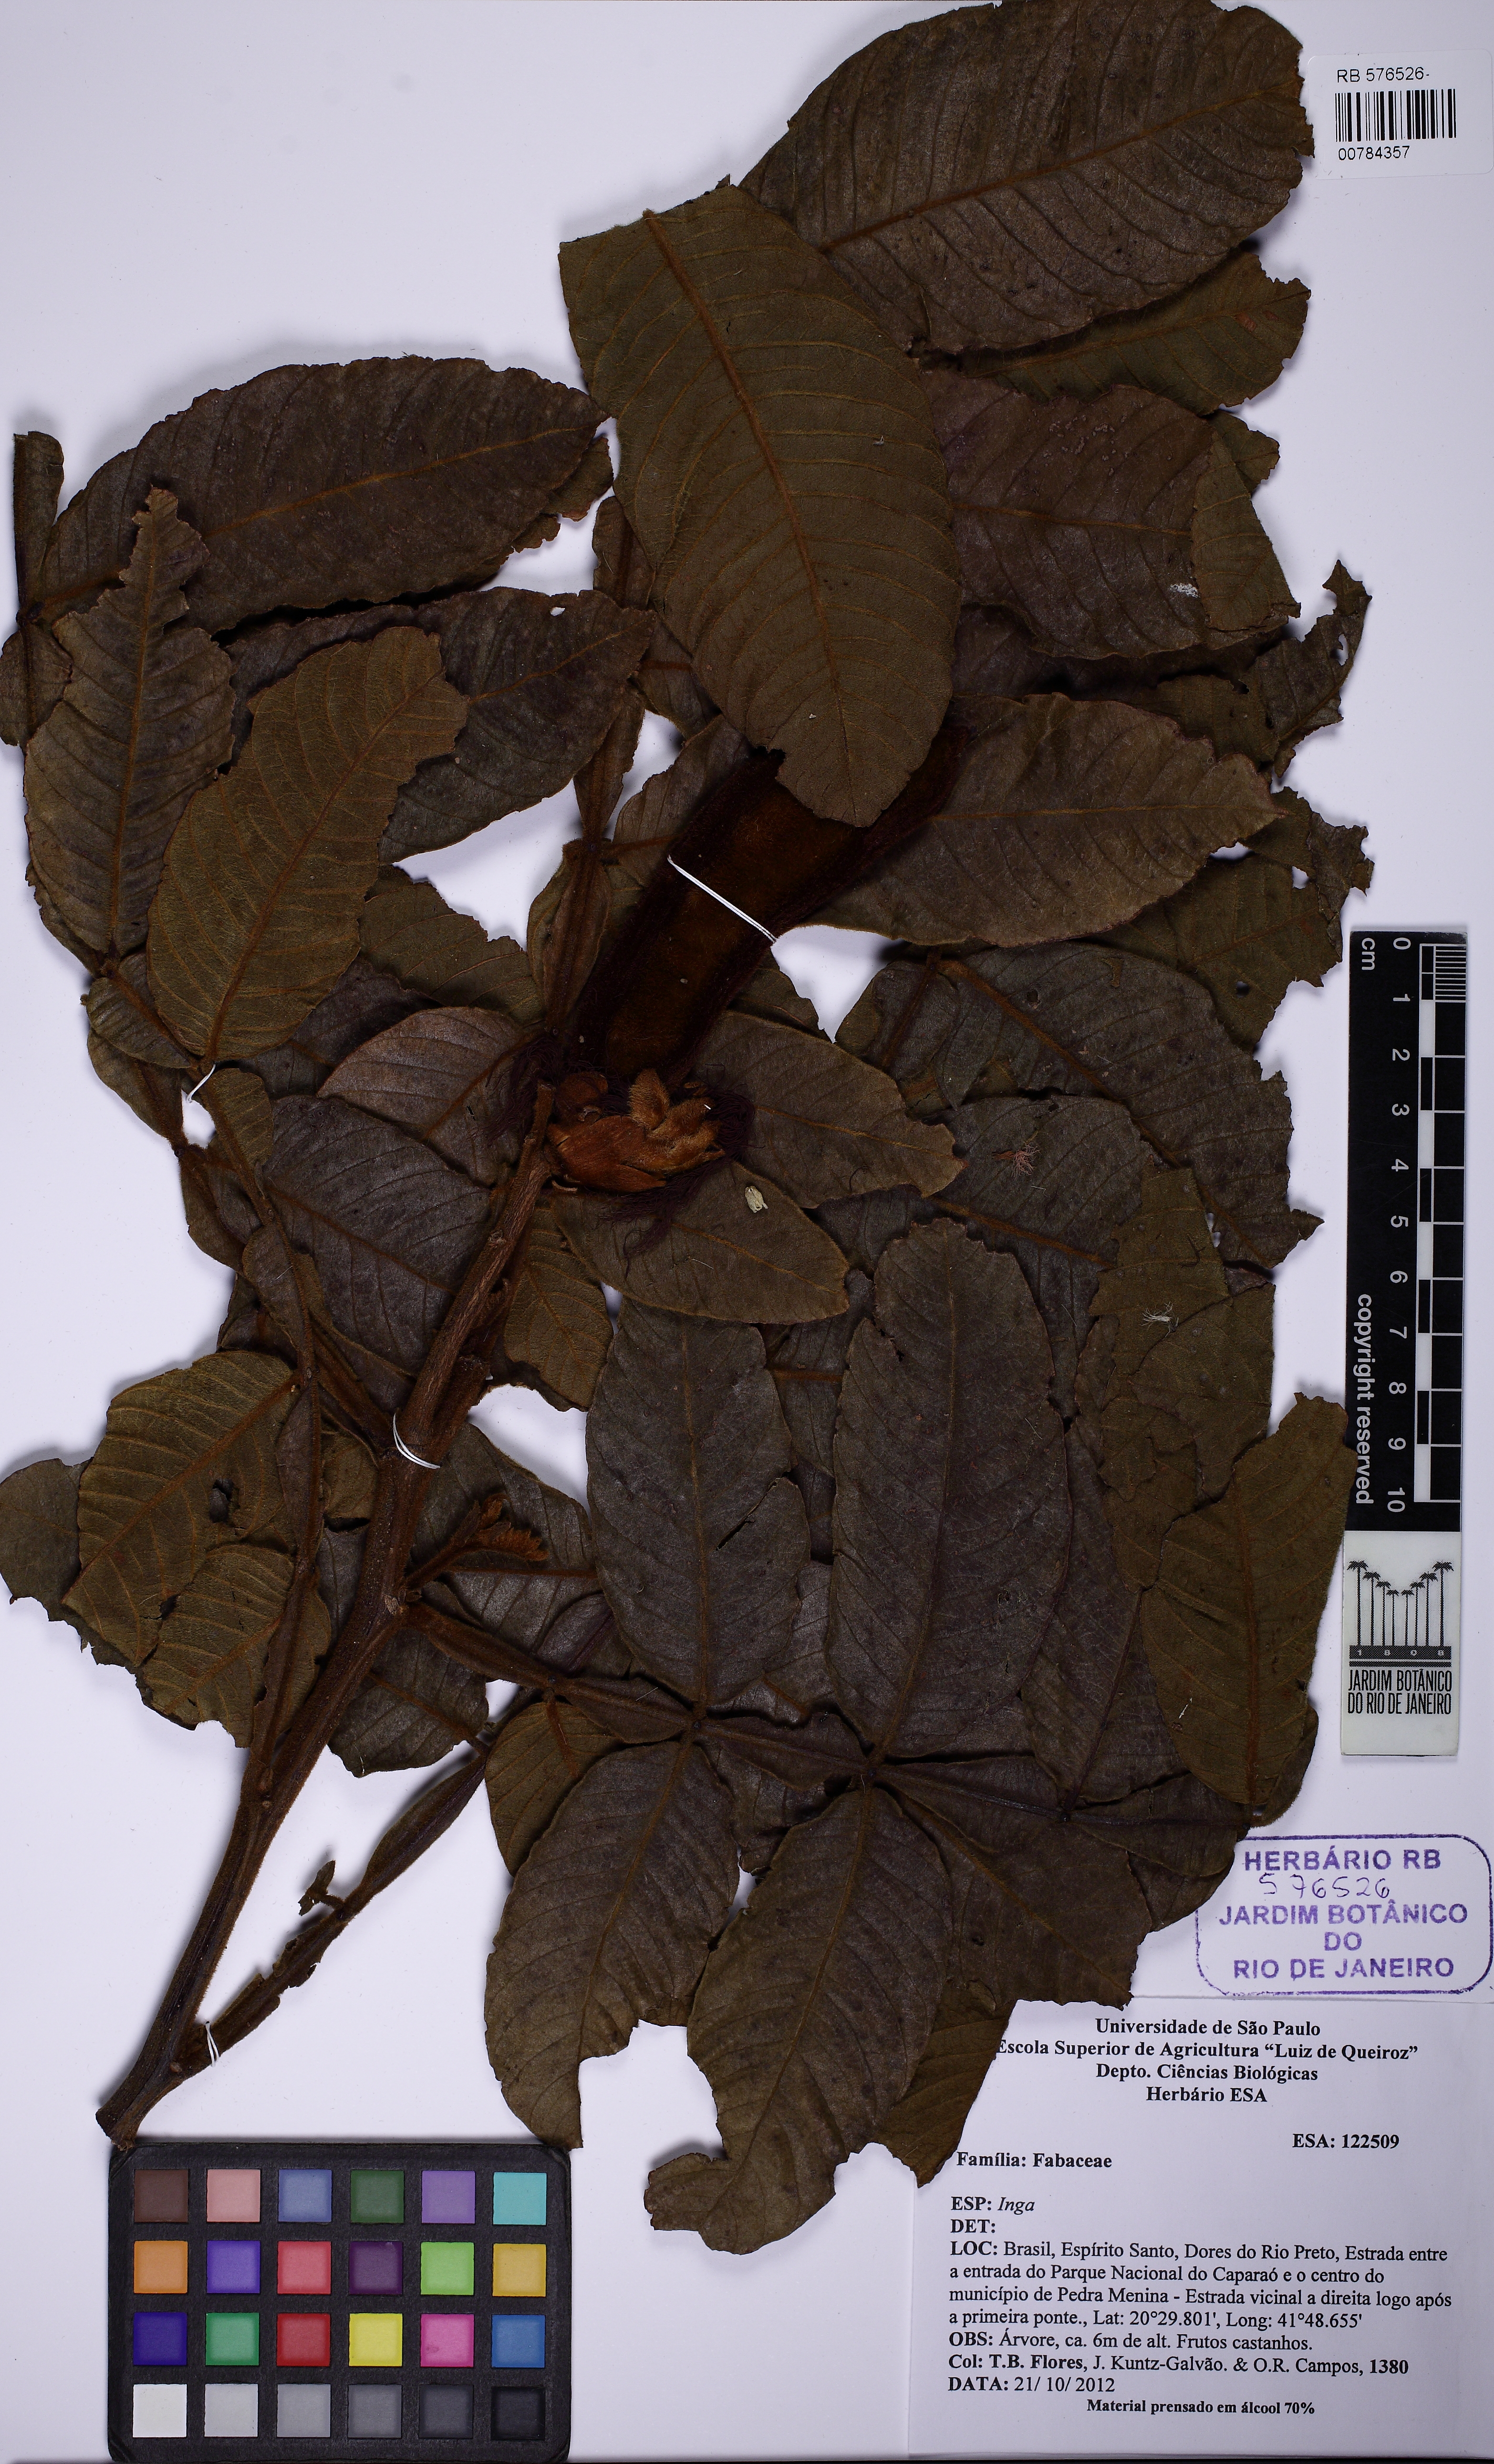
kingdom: Plantae
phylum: Tracheophyta
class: Magnoliopsida
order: Fabales
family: Fabaceae
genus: Inga
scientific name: Inga sessilis
